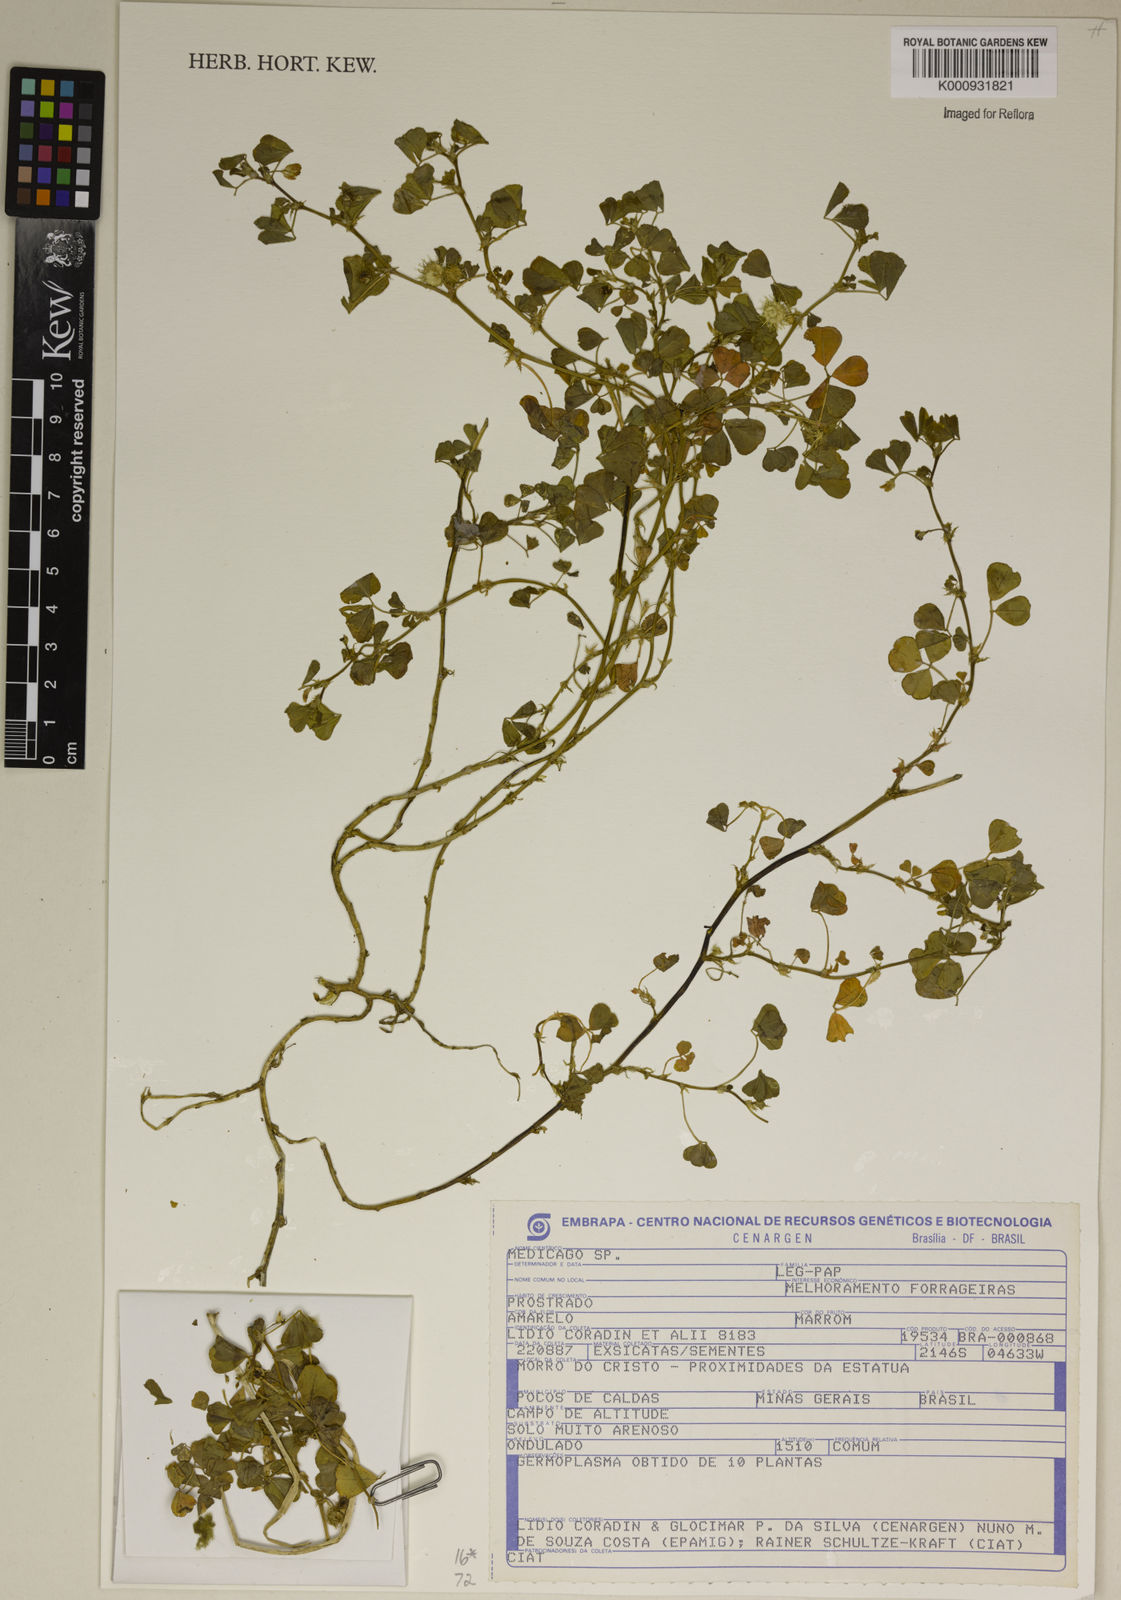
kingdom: Plantae
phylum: Tracheophyta
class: Magnoliopsida
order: Fabales
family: Fabaceae
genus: Medicago
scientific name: Medicago
